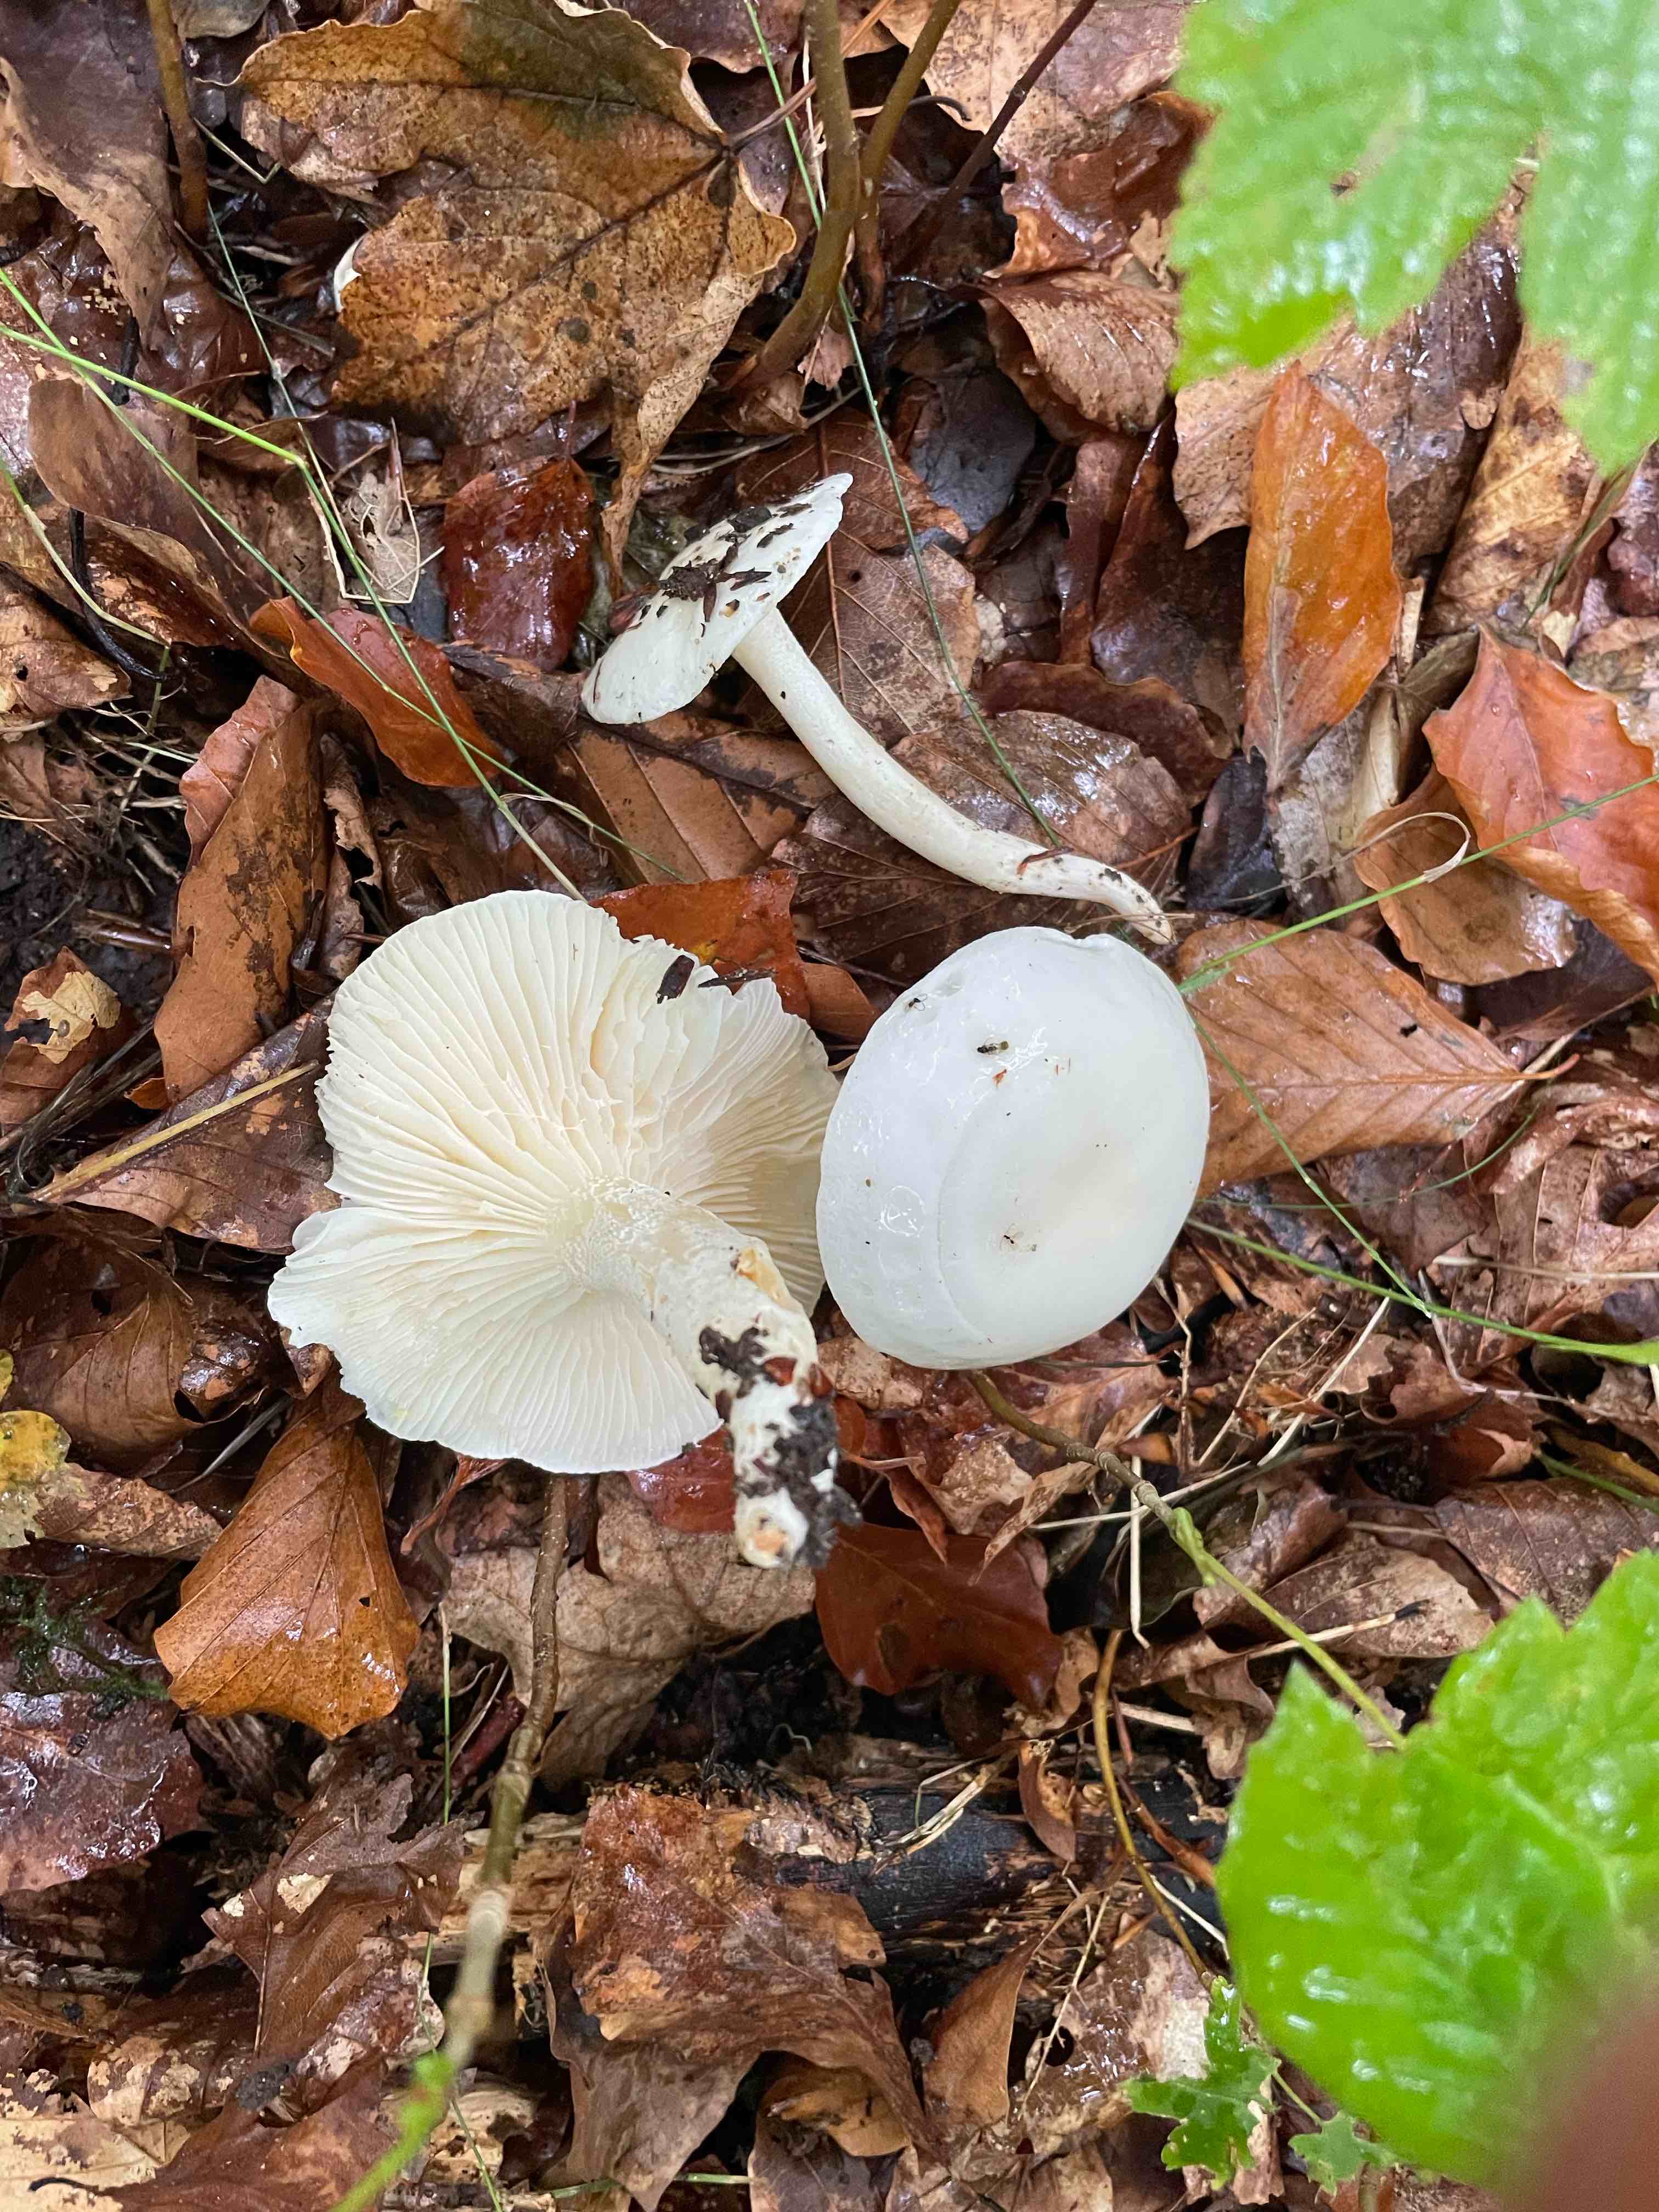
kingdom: Fungi
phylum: Basidiomycota
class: Agaricomycetes
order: Agaricales
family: Hygrophoraceae
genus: Hygrophorus
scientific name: Hygrophorus
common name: sneglehat
